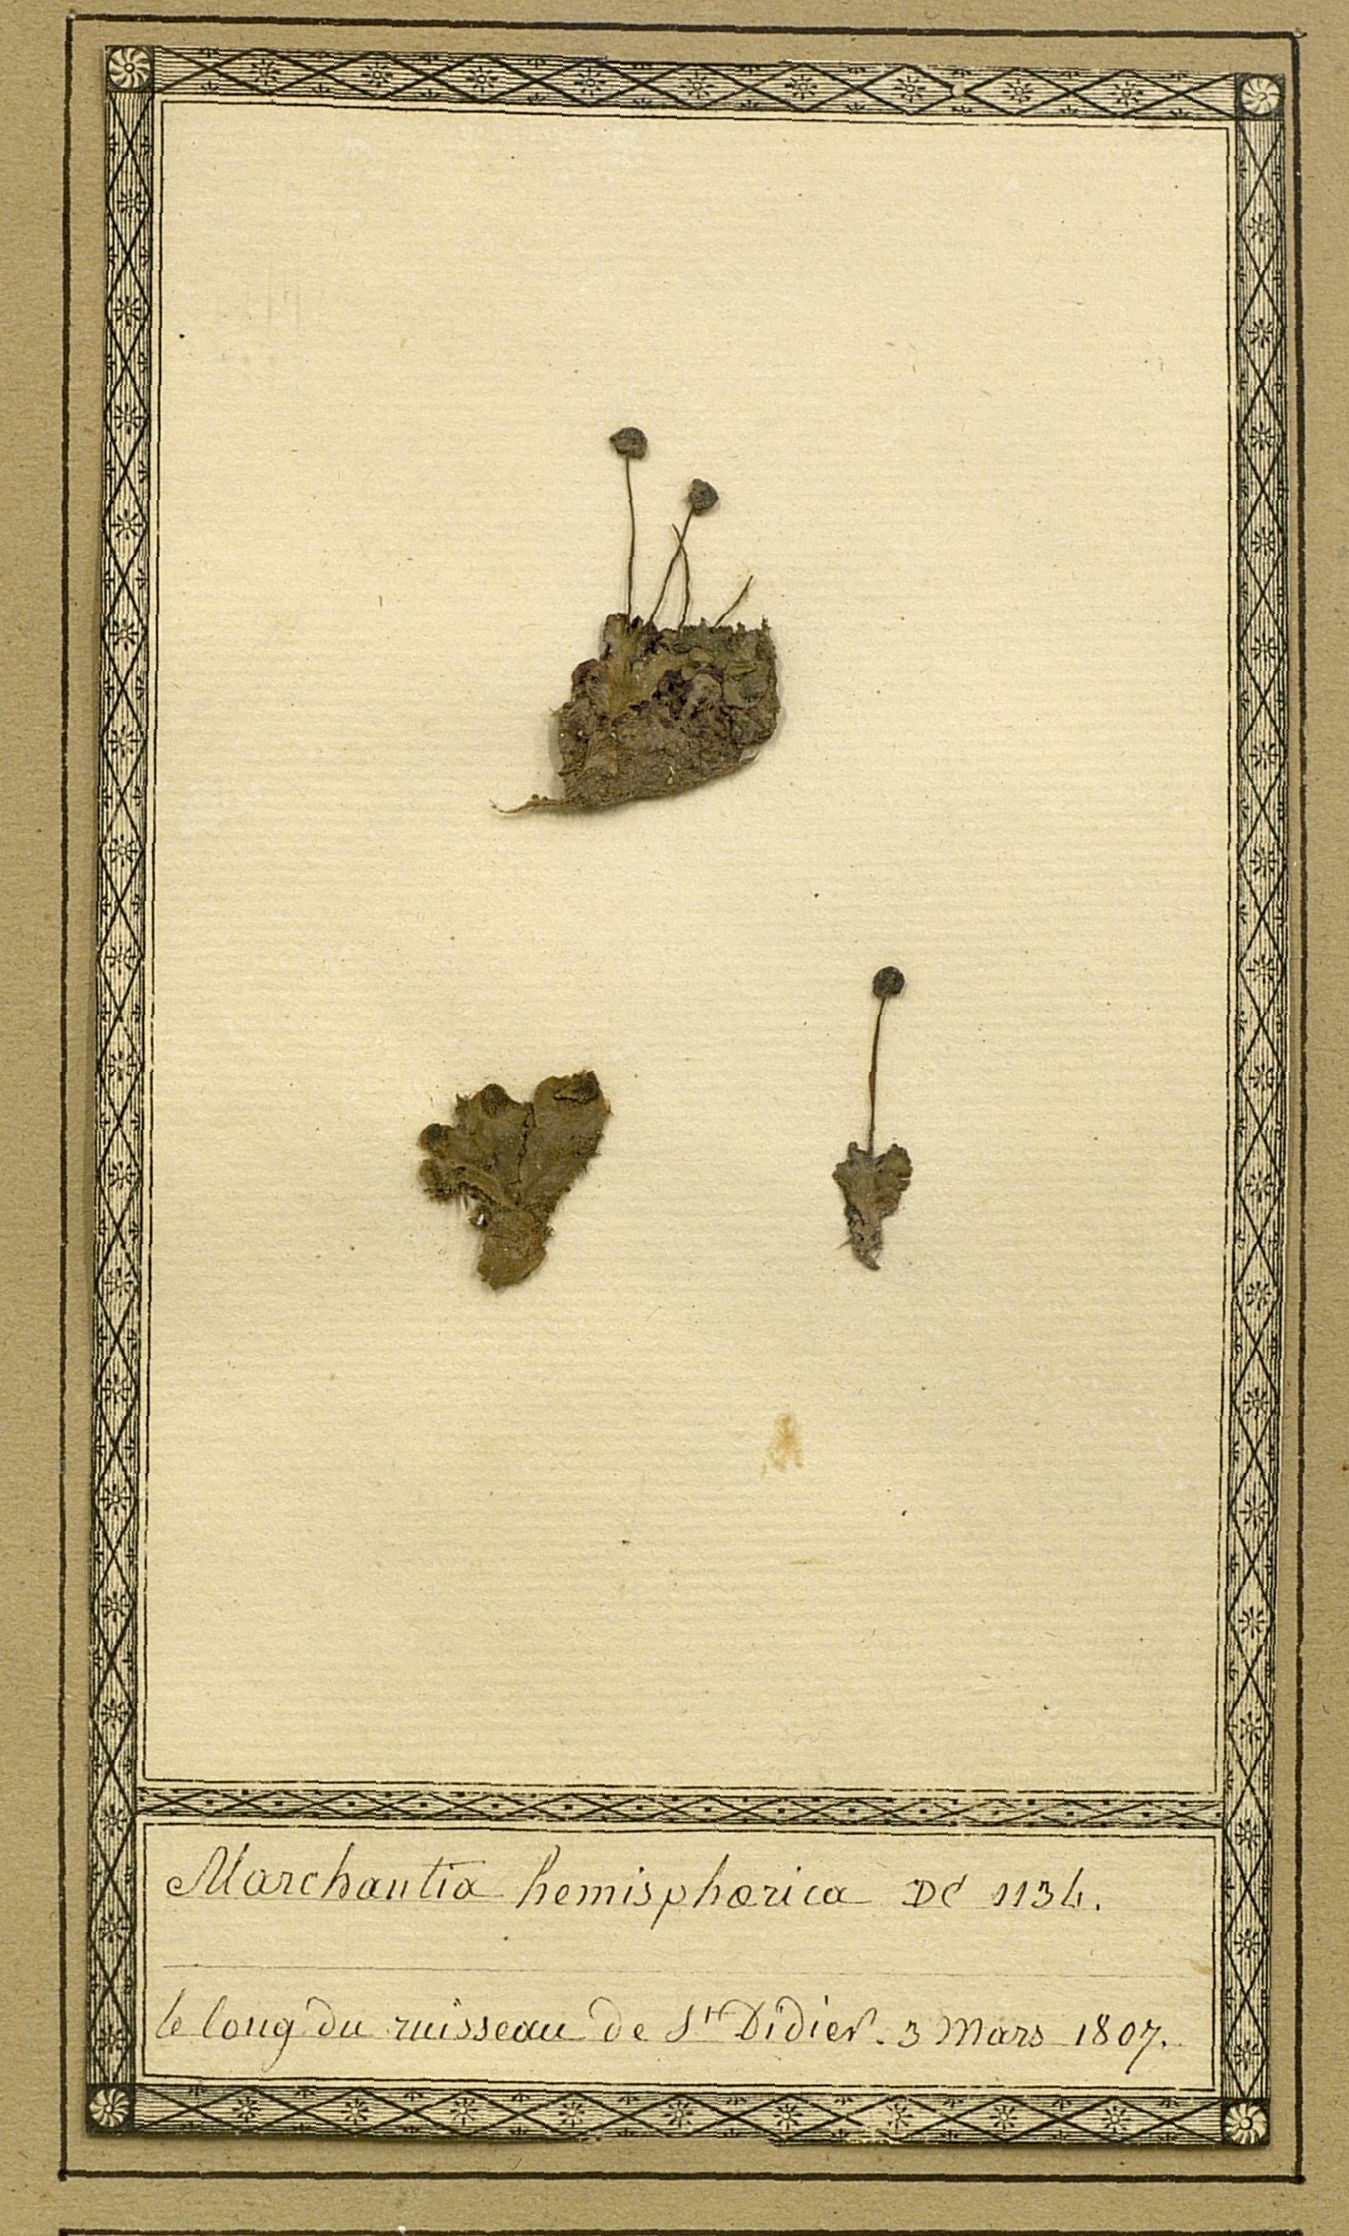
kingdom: Plantae
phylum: Marchantiophyta
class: Marchantiopsida
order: Marchantiales
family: Marchantiaceae
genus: Marchantia
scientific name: Marchantia quadrata
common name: Narrow mushroom-headed liverwort
